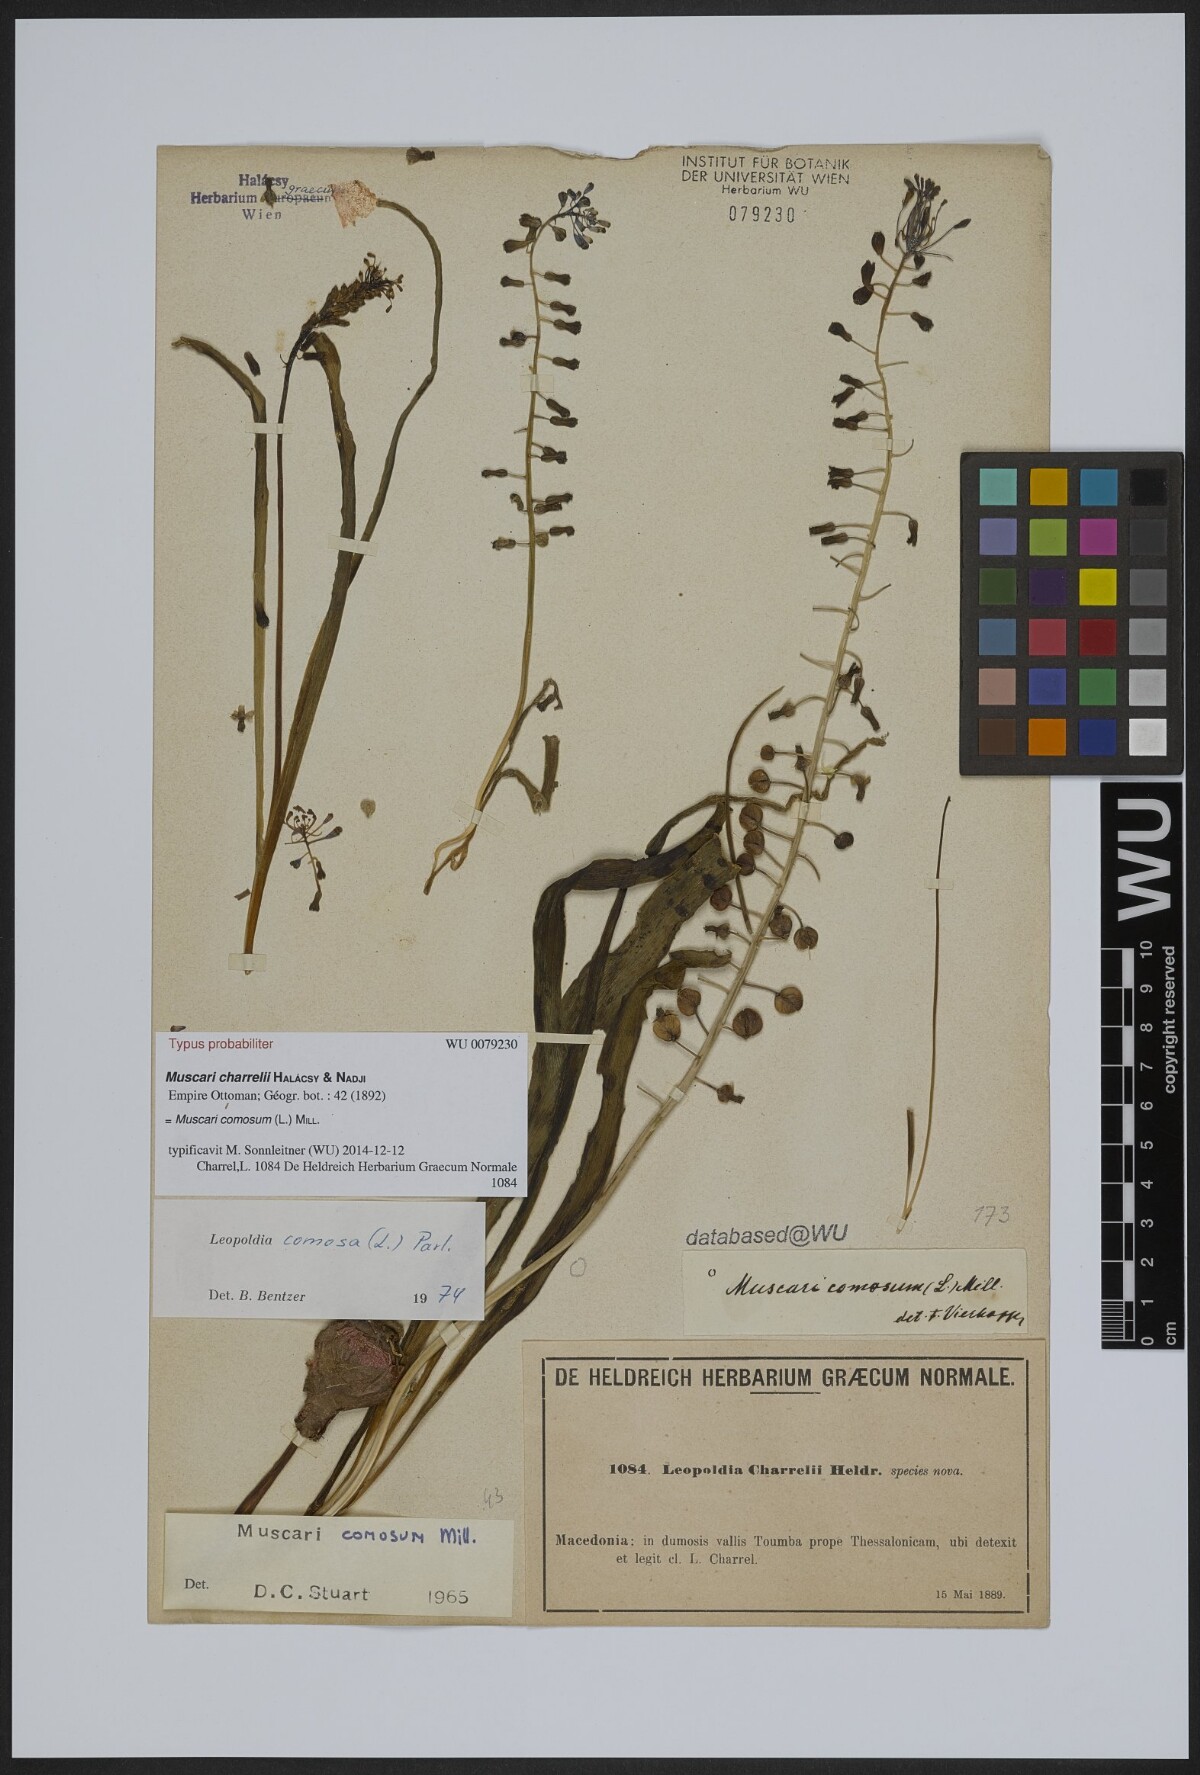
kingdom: Plantae
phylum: Tracheophyta
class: Liliopsida
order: Asparagales
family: Asparagaceae
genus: Muscari
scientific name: Muscari comosum
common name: Tassel hyacinth
